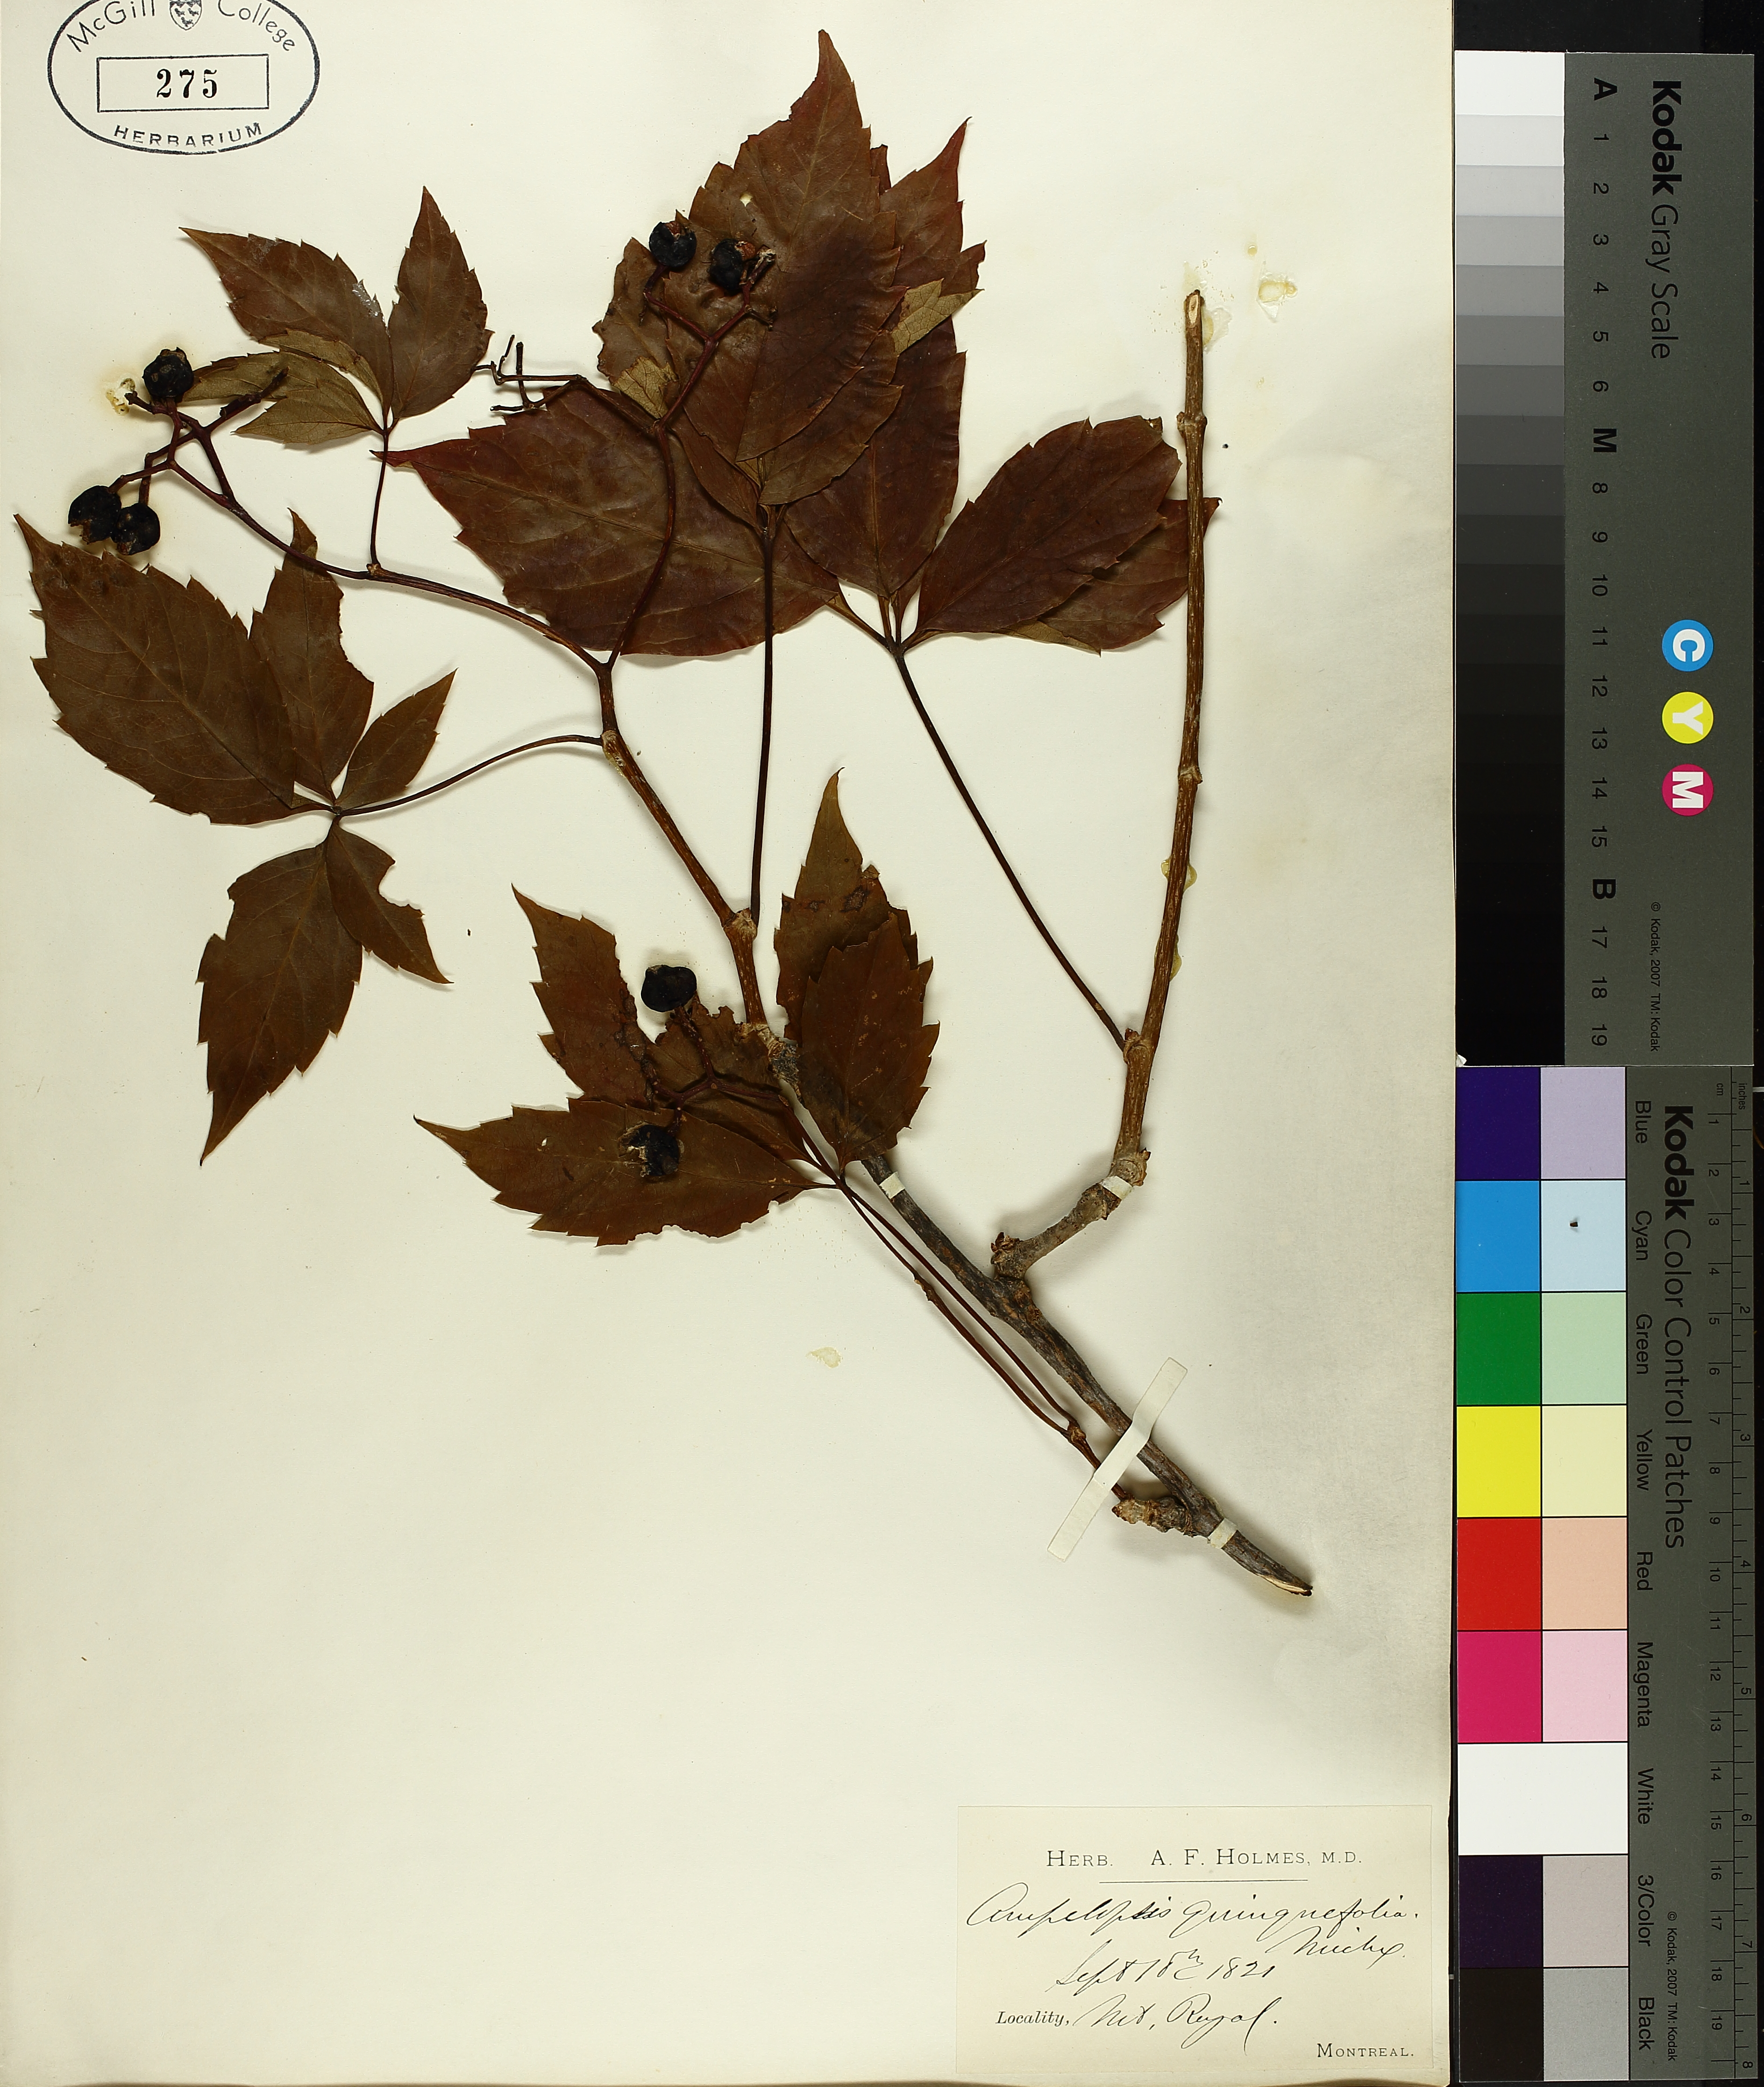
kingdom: Plantae
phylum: Tracheophyta
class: Magnoliopsida
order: Vitales
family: Vitaceae
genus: Parthenocissus
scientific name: Parthenocissus quinquefolia
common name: Virginia-creeper
